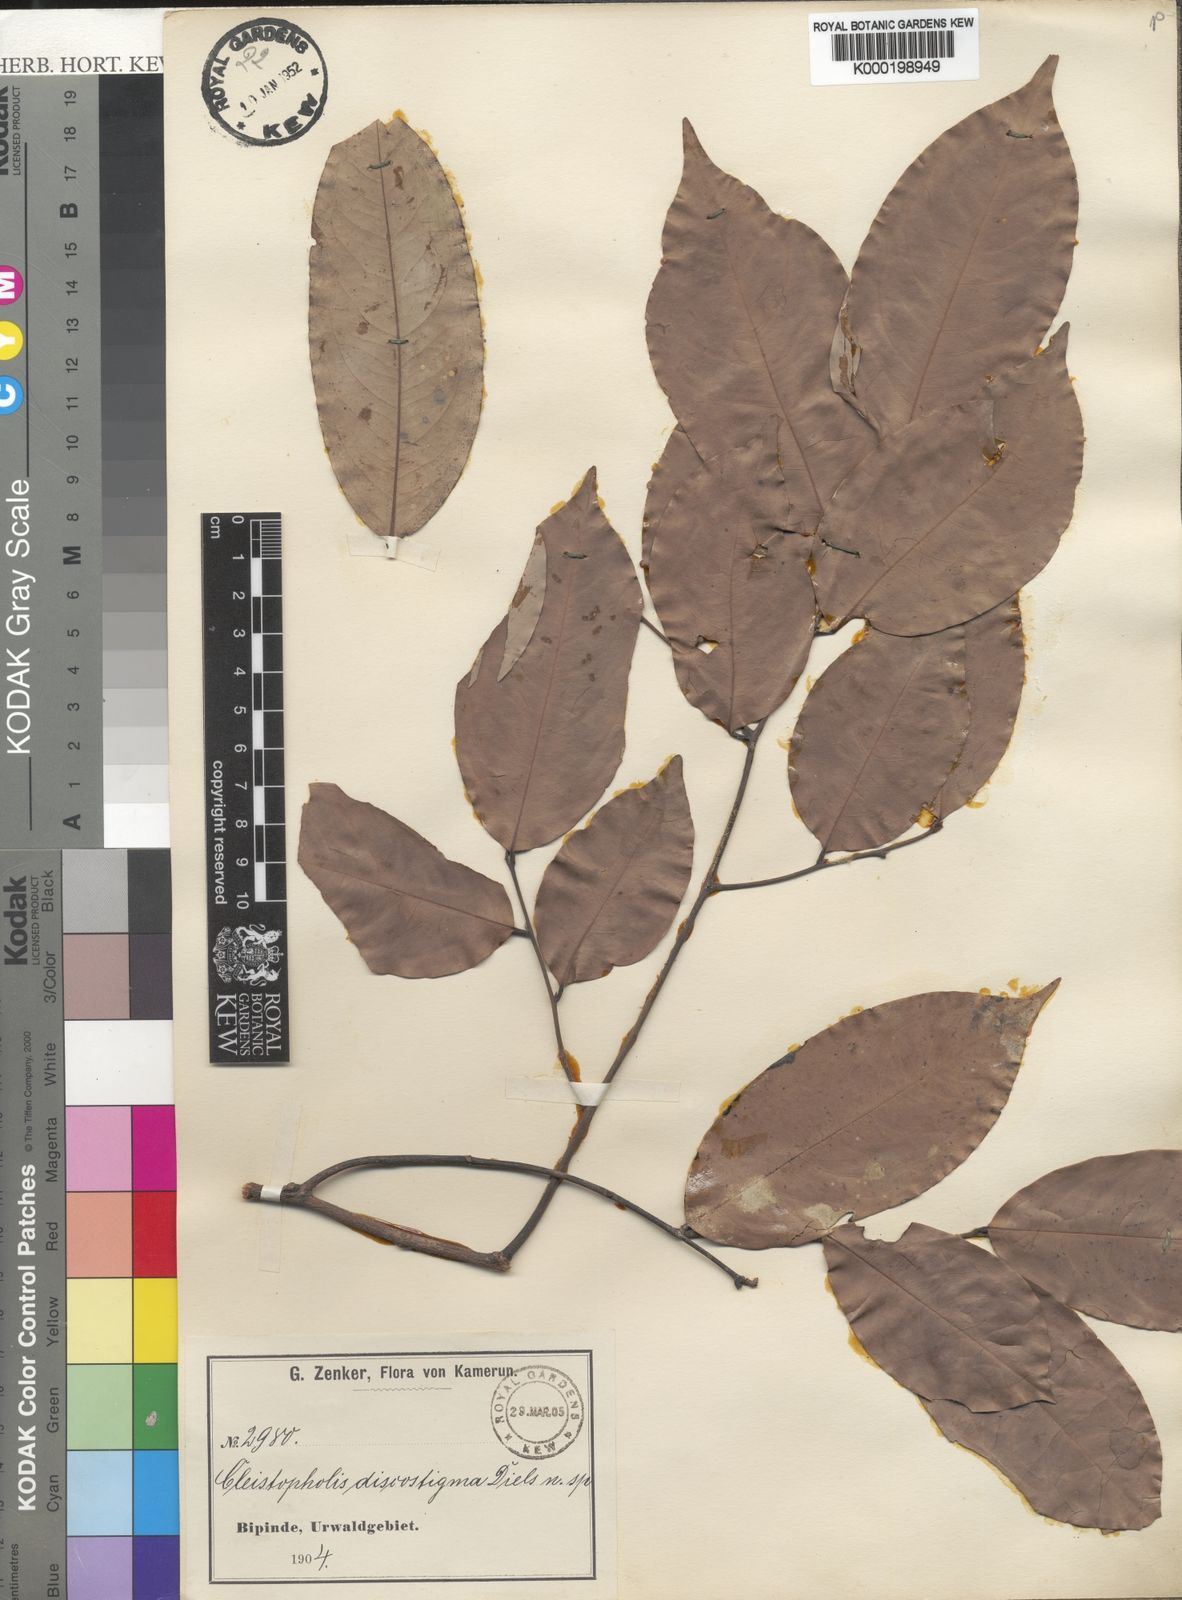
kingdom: Plantae
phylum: Tracheophyta
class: Magnoliopsida
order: Magnoliales
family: Annonaceae
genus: Friesodielsia
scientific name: Friesodielsia discostigma
